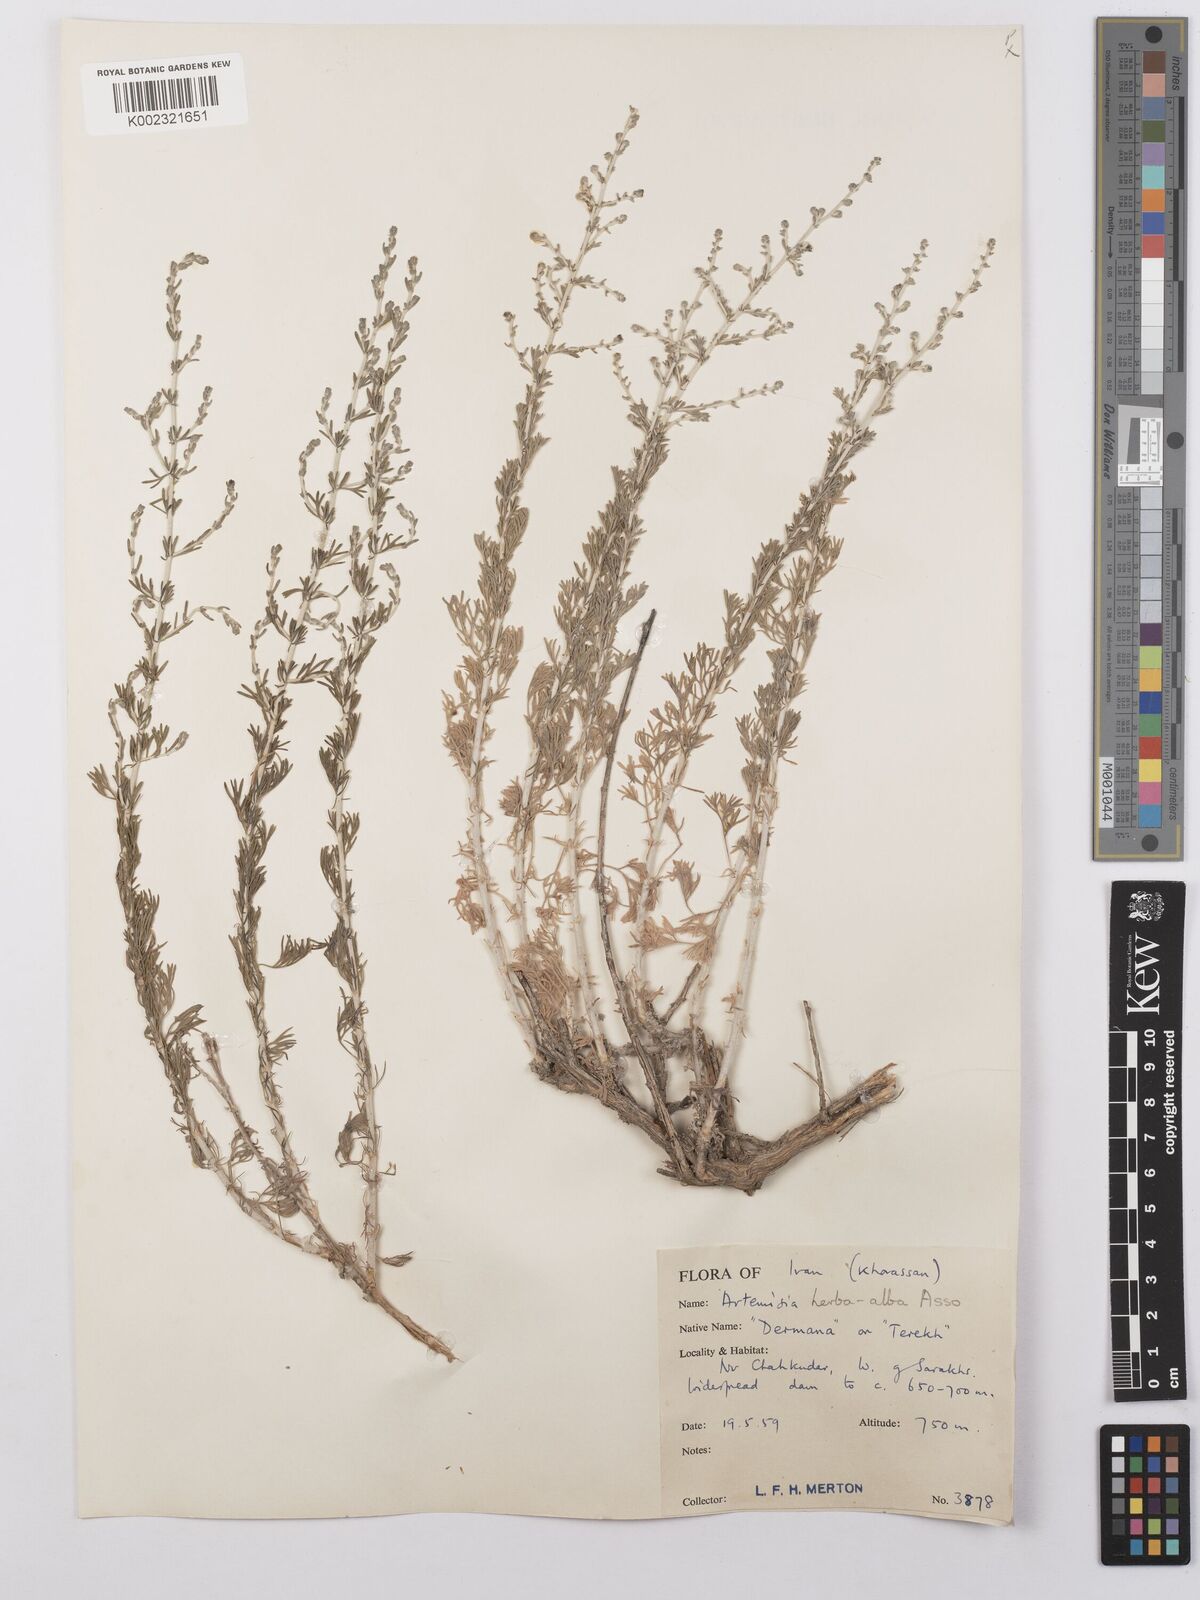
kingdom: Plantae
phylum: Tracheophyta
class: Magnoliopsida
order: Asterales
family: Asteraceae
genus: Artemisia
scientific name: Artemisia herba-alba
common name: White wormwood
